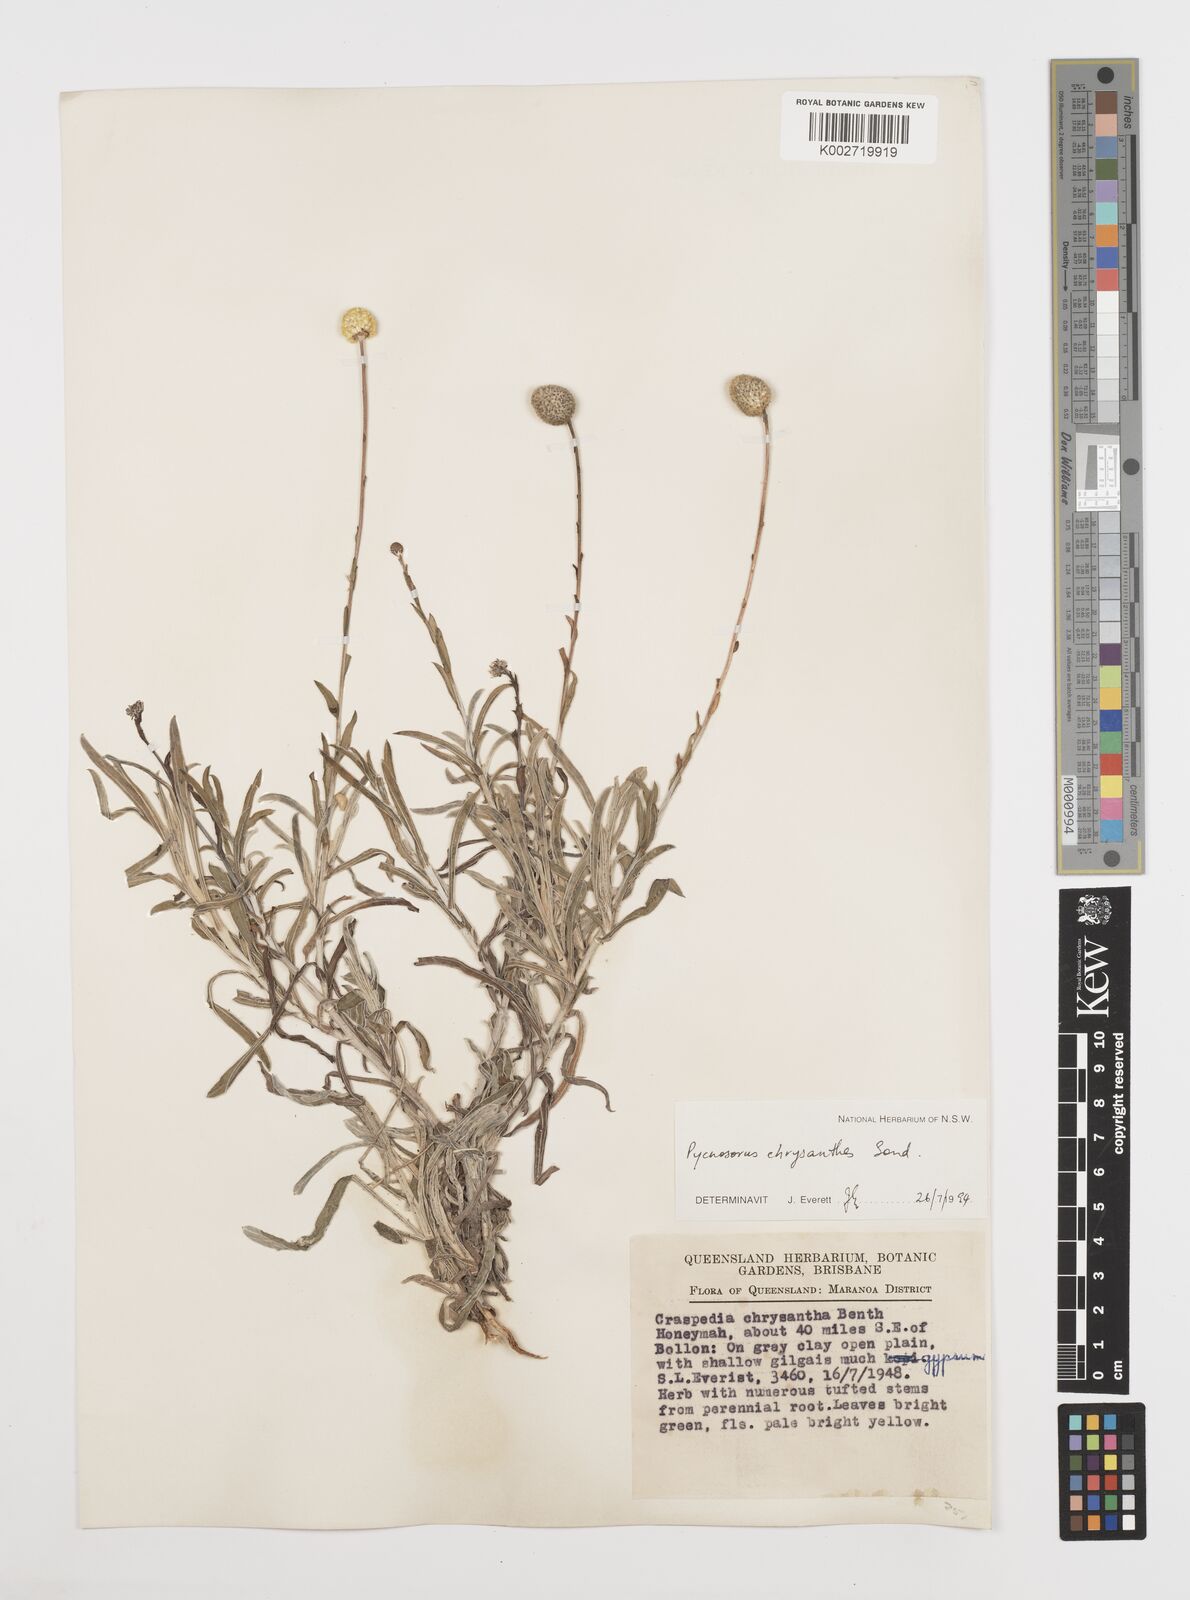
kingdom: Plantae
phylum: Tracheophyta
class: Magnoliopsida
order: Asterales
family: Asteraceae
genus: Pycnosorus
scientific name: Pycnosorus chrysanthus
